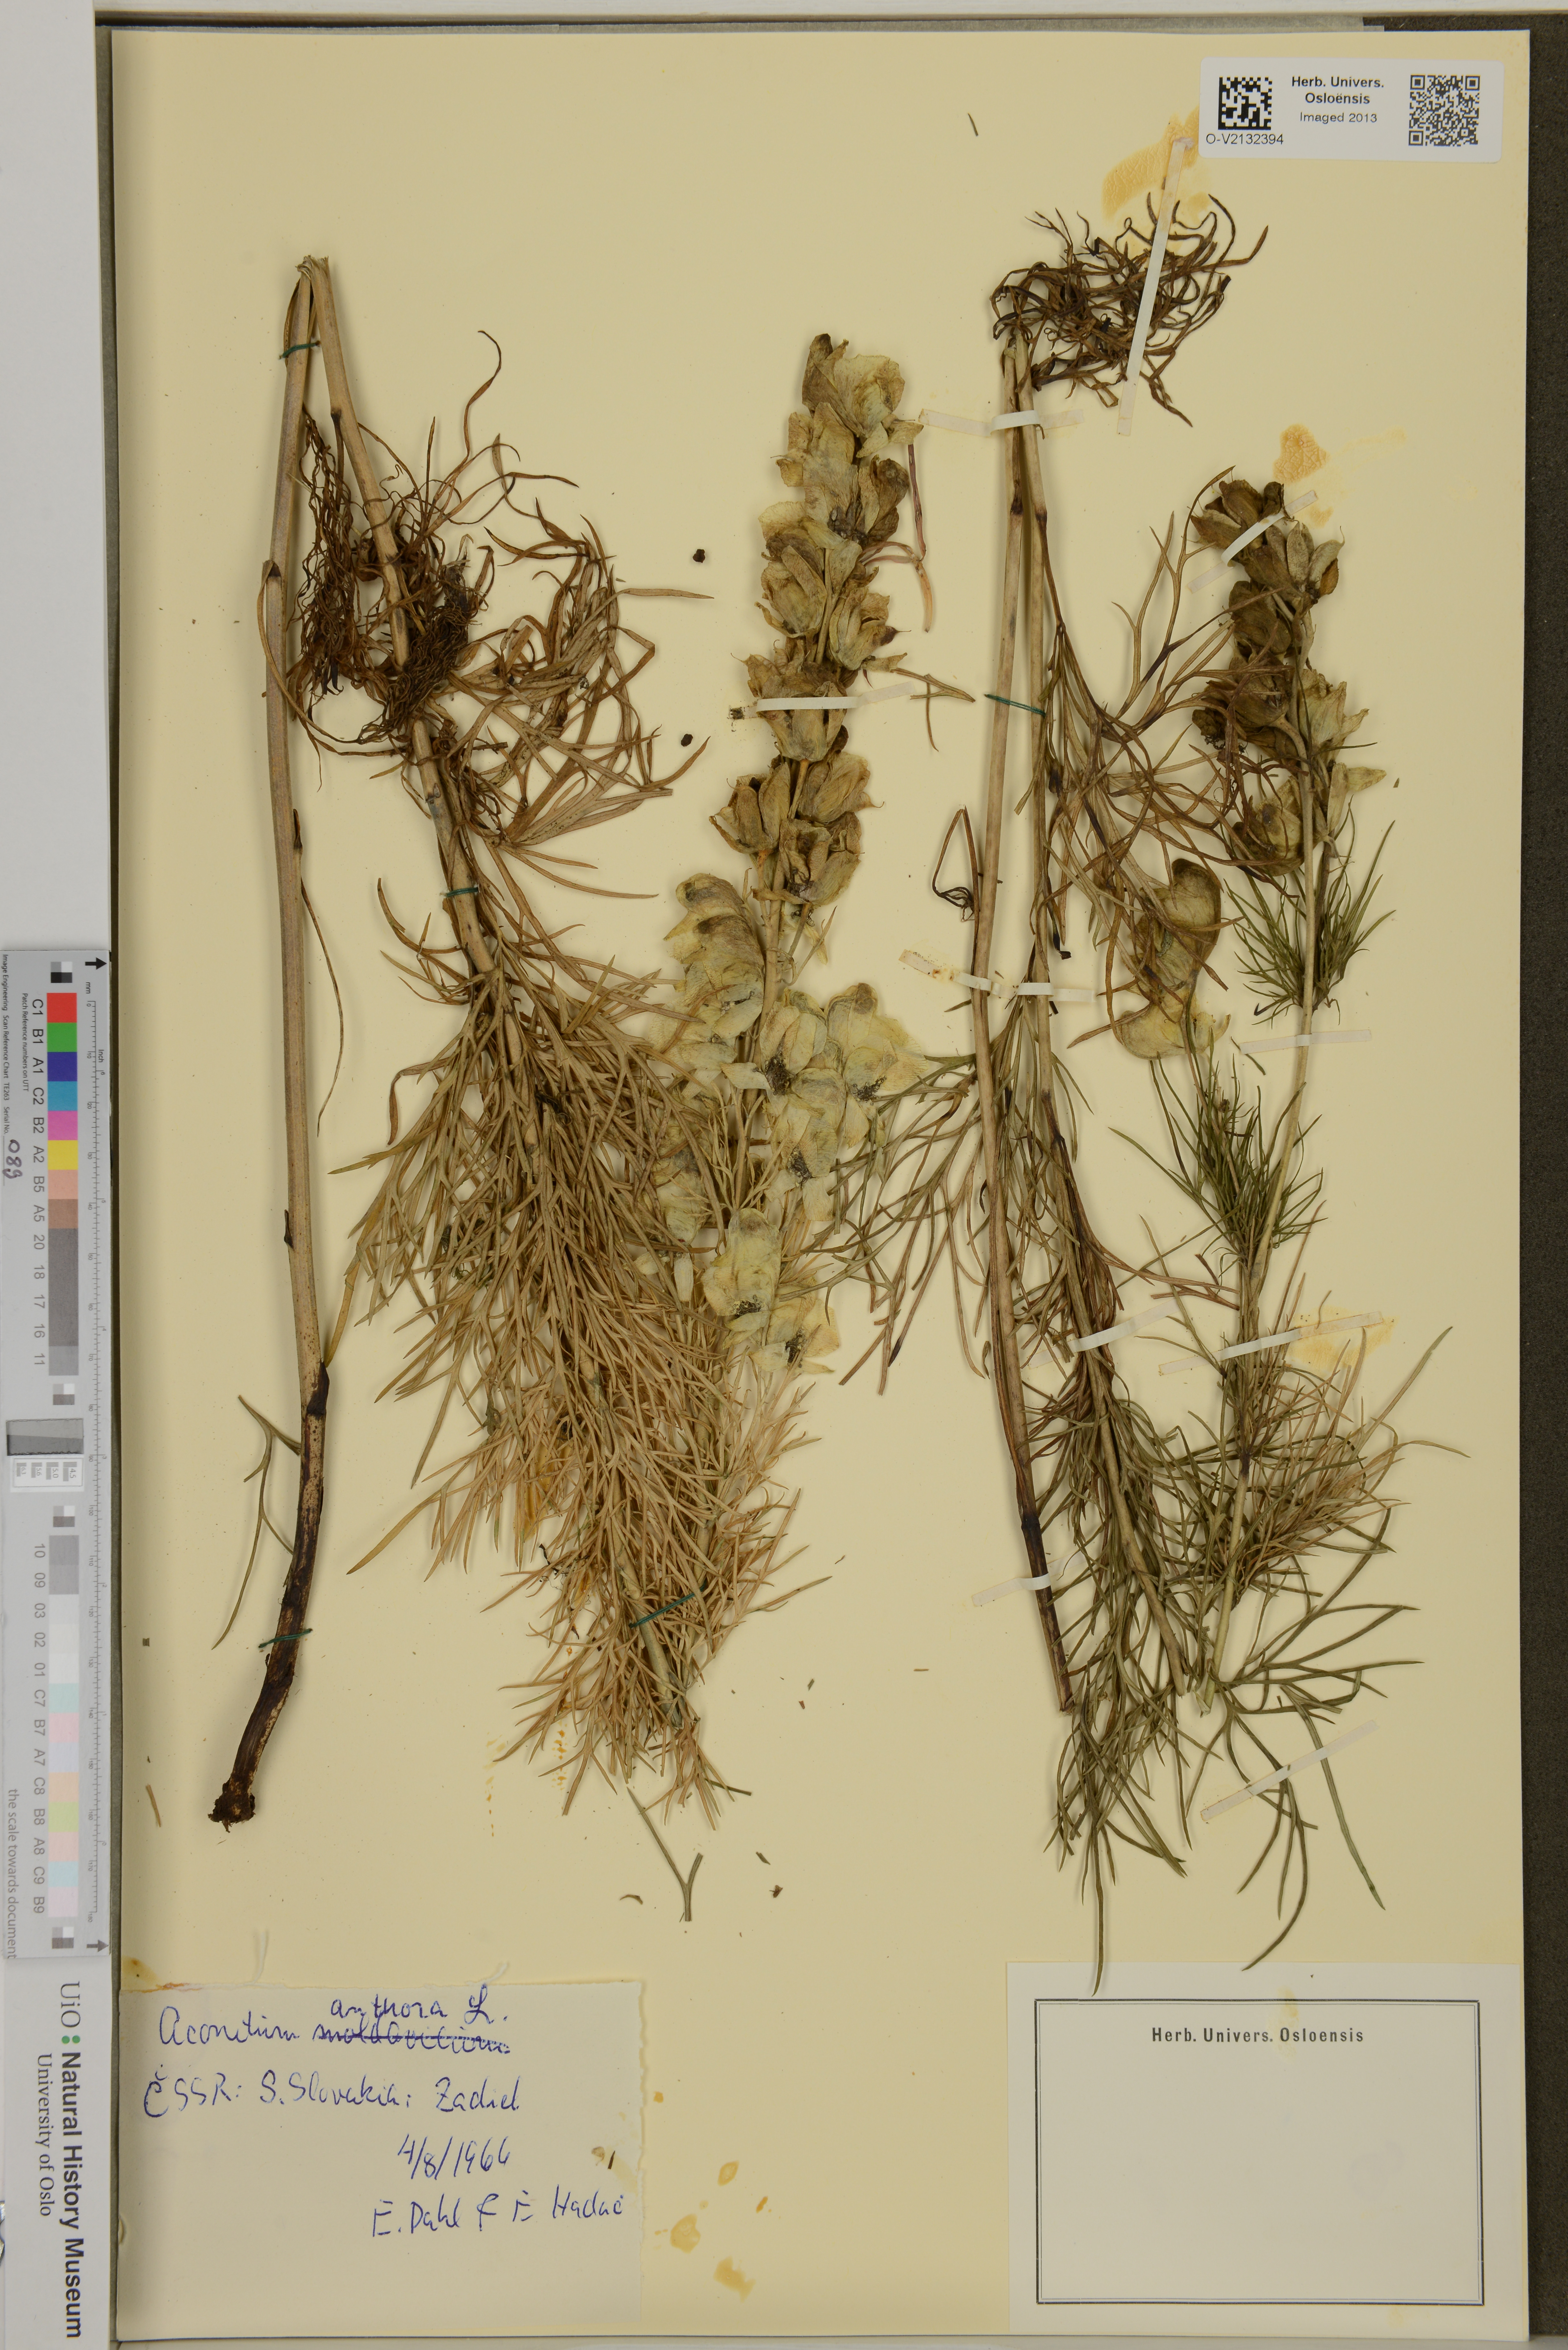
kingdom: Plantae
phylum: Tracheophyta
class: Magnoliopsida
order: Ranunculales
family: Ranunculaceae
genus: Aconitum
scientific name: Aconitum anthora
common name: Yellow monkshood
